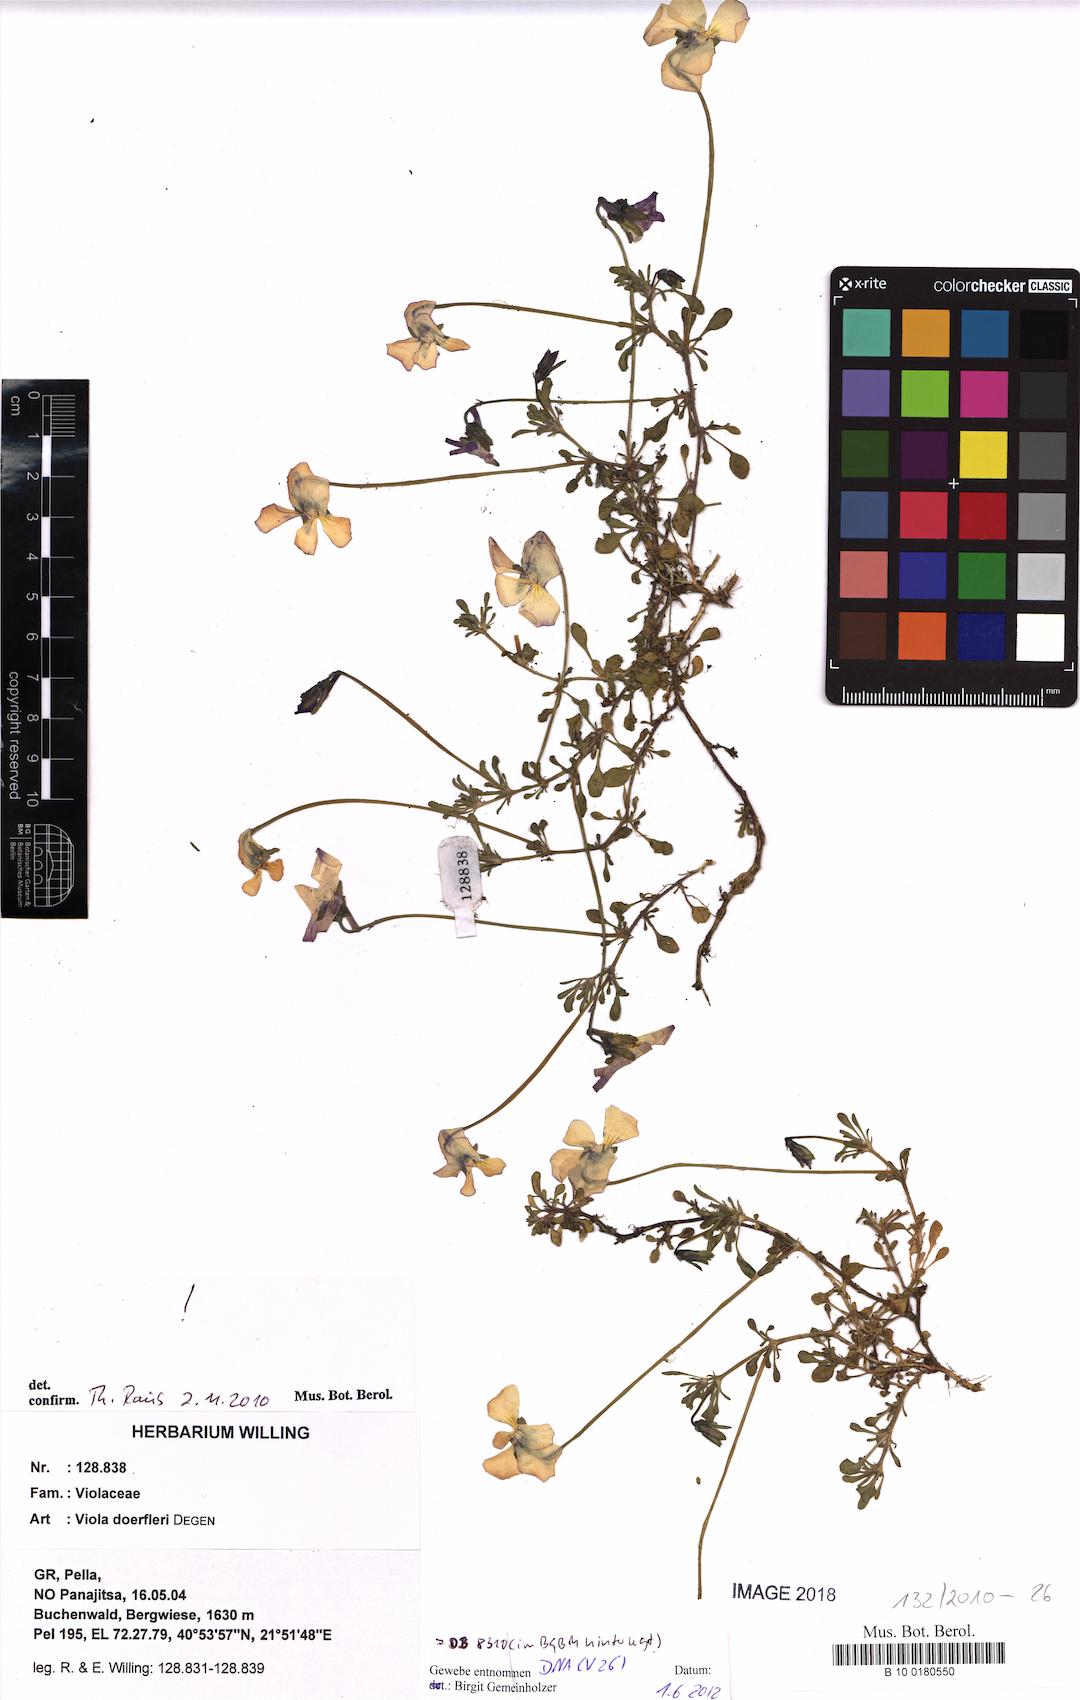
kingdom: Plantae
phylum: Tracheophyta
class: Magnoliopsida
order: Malpighiales
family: Violaceae
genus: Viola
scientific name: Viola doerfleri
